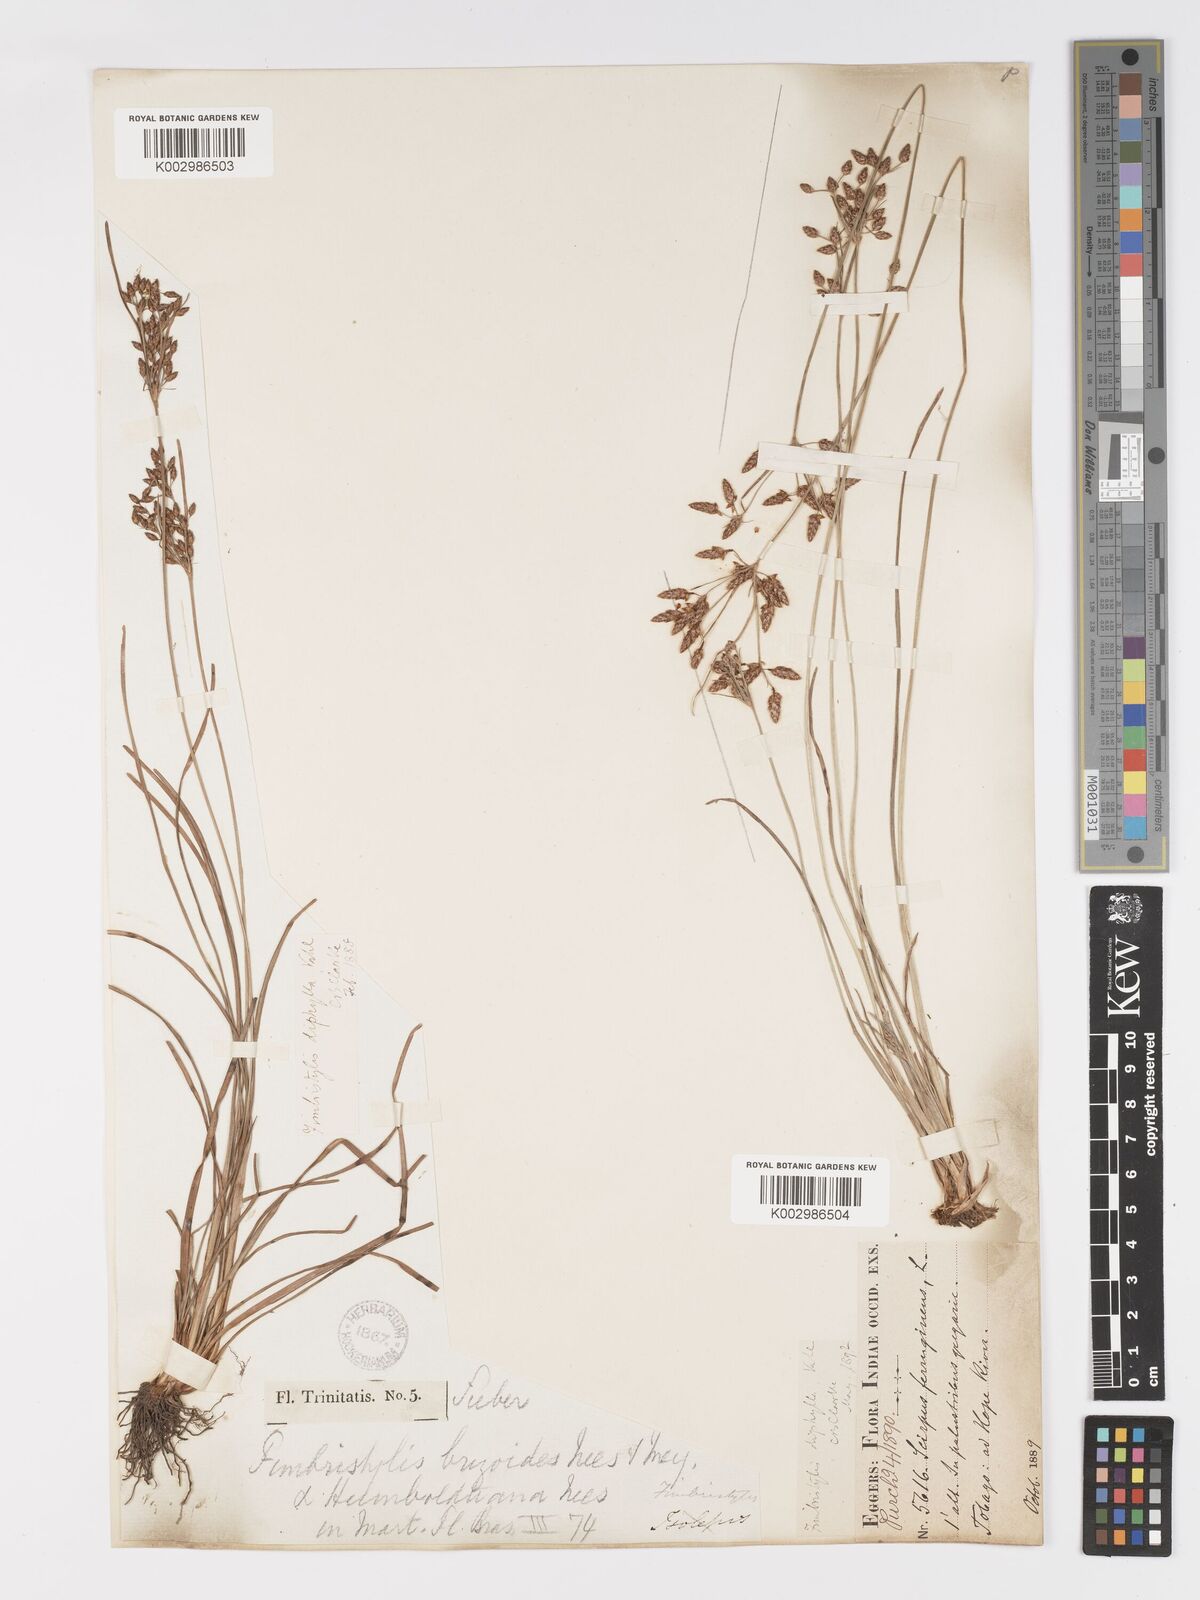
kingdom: Plantae
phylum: Tracheophyta
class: Liliopsida
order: Poales
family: Cyperaceae
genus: Fimbristylis
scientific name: Fimbristylis dichotoma
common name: Forked fimbry
